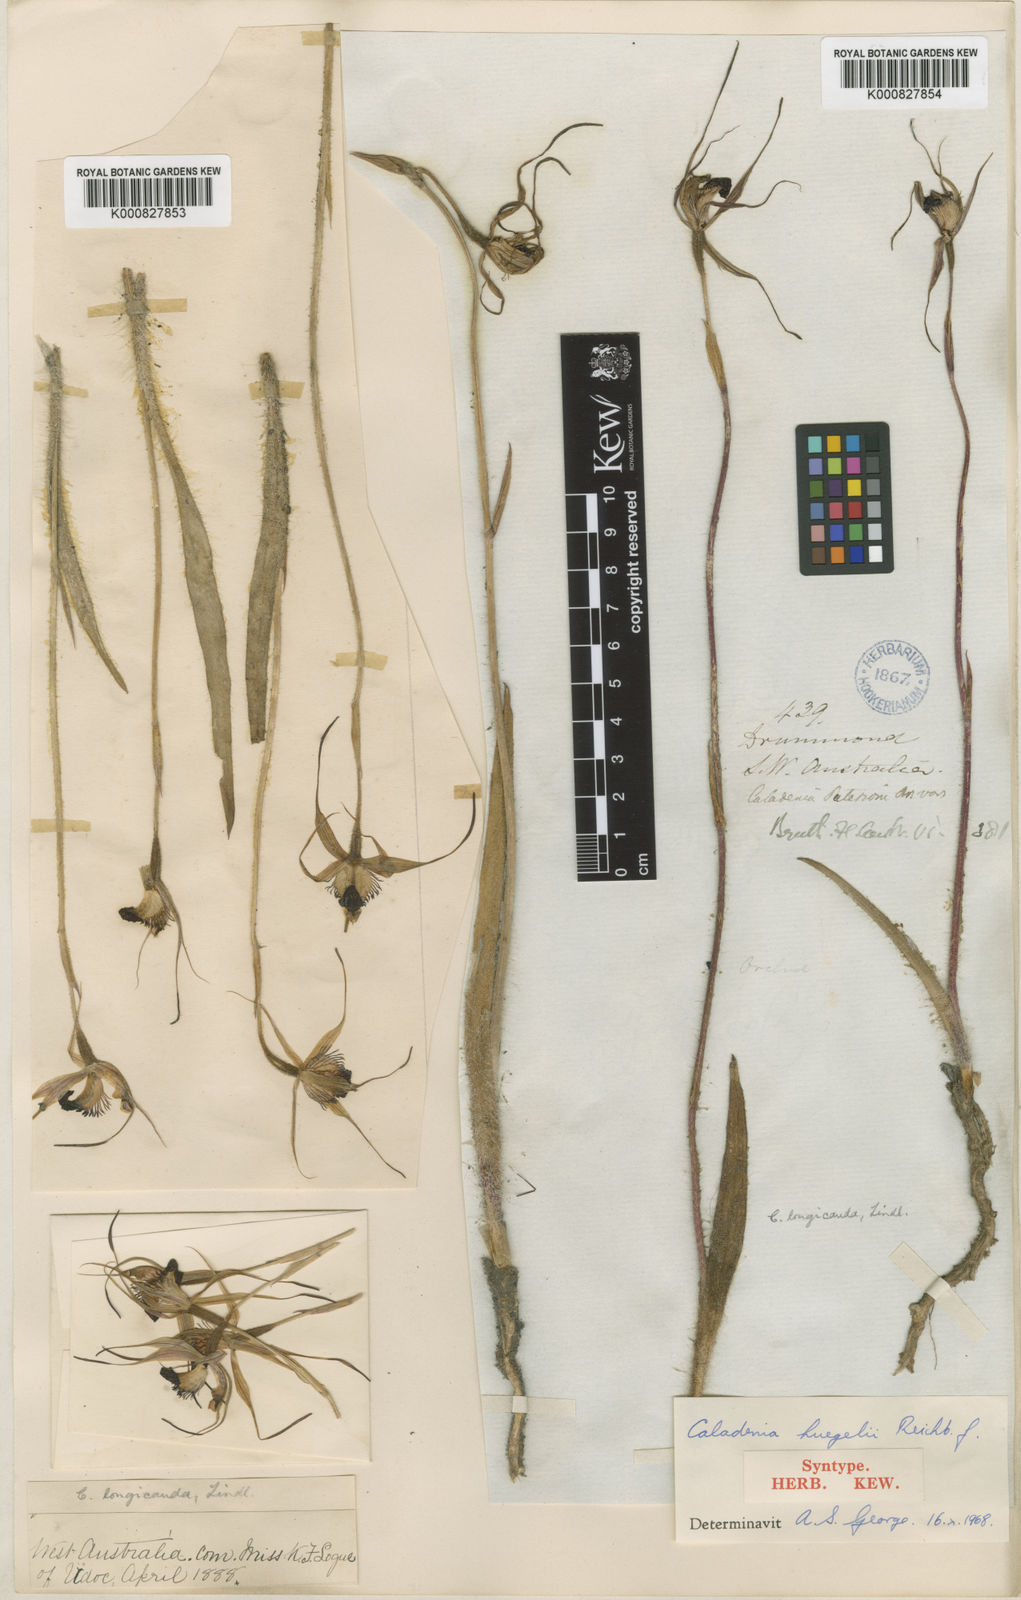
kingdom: Plantae
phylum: Tracheophyta
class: Liliopsida
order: Asparagales
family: Orchidaceae
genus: Caladenia
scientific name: Caladenia huegelii
